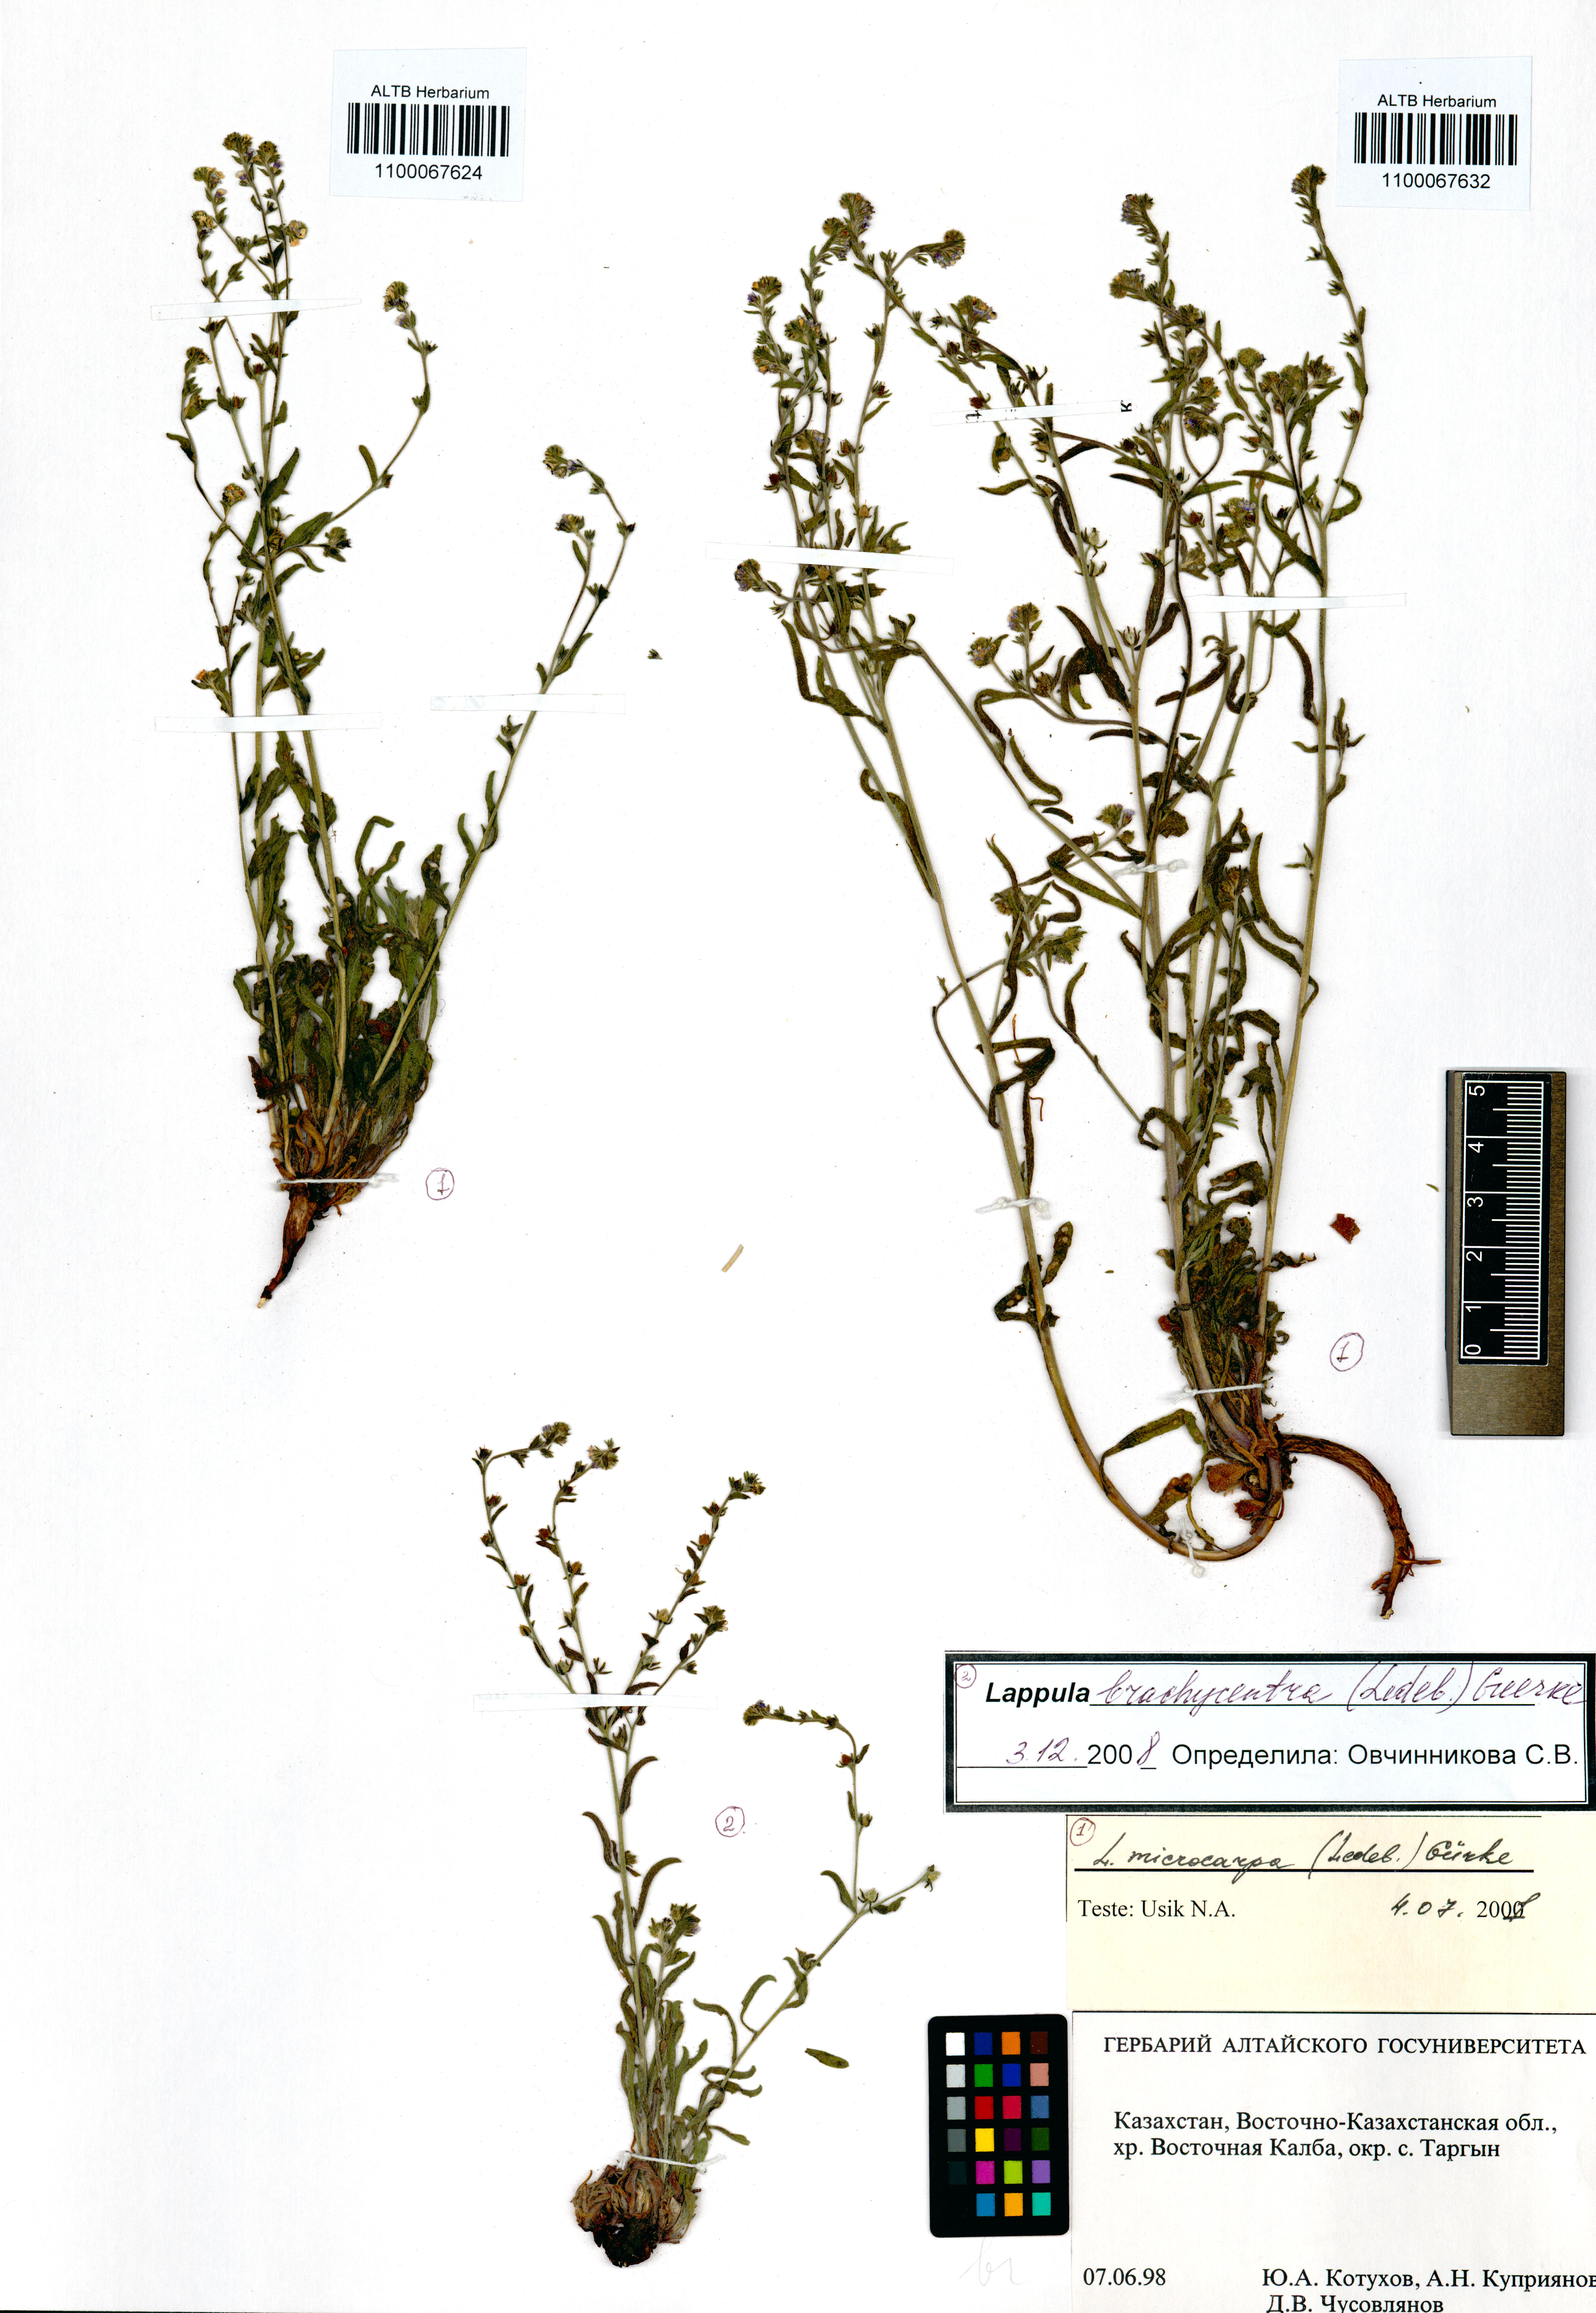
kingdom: Plantae
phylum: Tracheophyta
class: Magnoliopsida
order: Boraginales
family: Boraginaceae
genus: Lappula
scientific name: Lappula brachycentra
